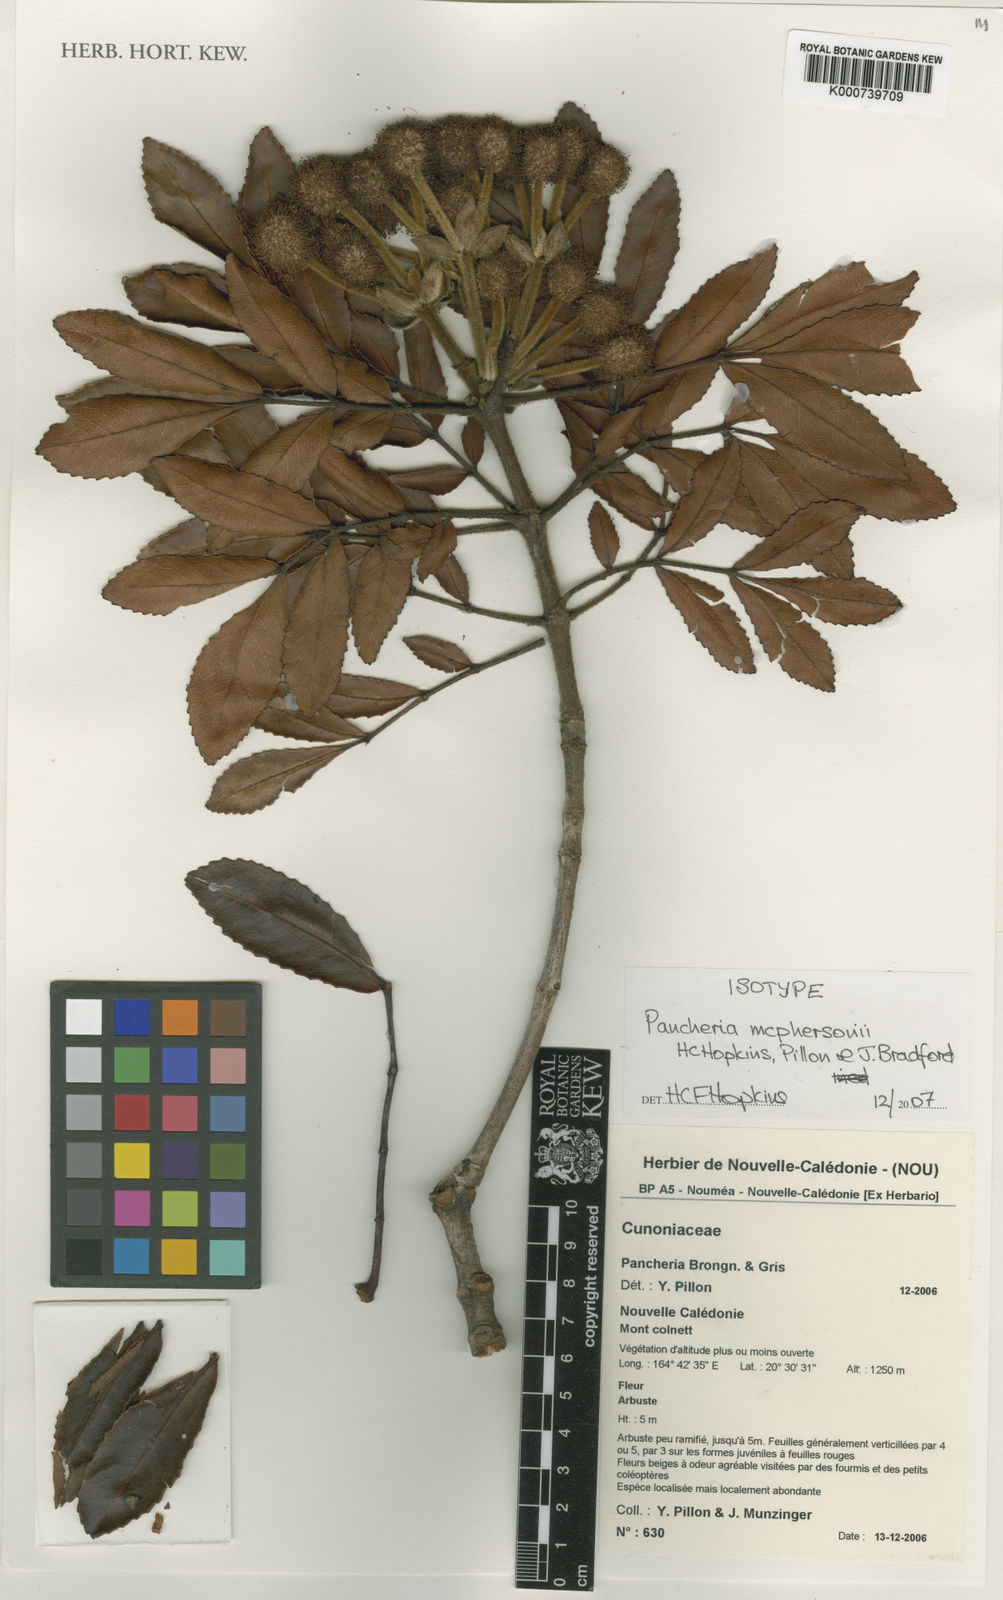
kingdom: Plantae
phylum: Tracheophyta
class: Magnoliopsida
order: Oxalidales
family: Cunoniaceae
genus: Pancheria
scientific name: Pancheria mcphersonii
